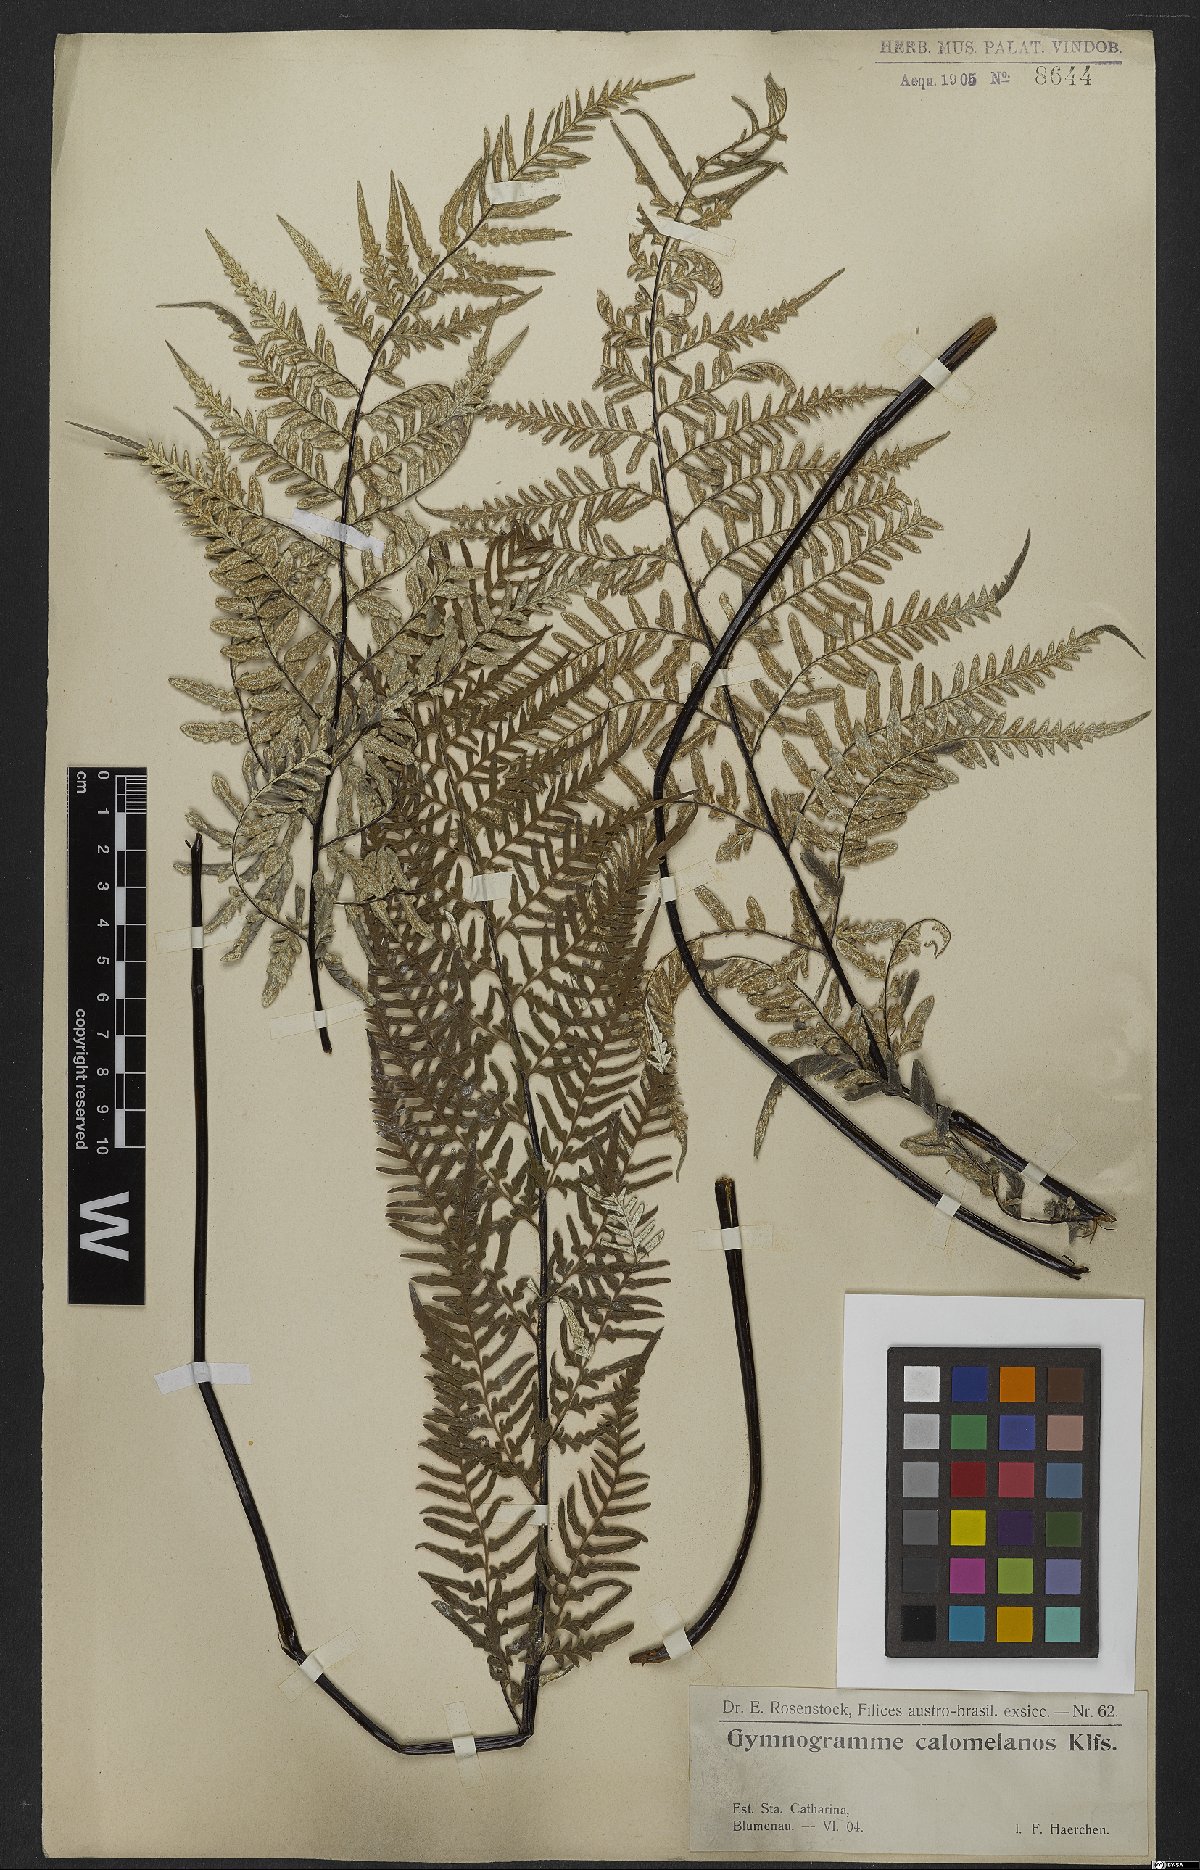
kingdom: Plantae
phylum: Tracheophyta
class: Polypodiopsida
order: Polypodiales
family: Pteridaceae
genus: Pityrogramma
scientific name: Pityrogramma calomelanos
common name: Dixie silverback fern
